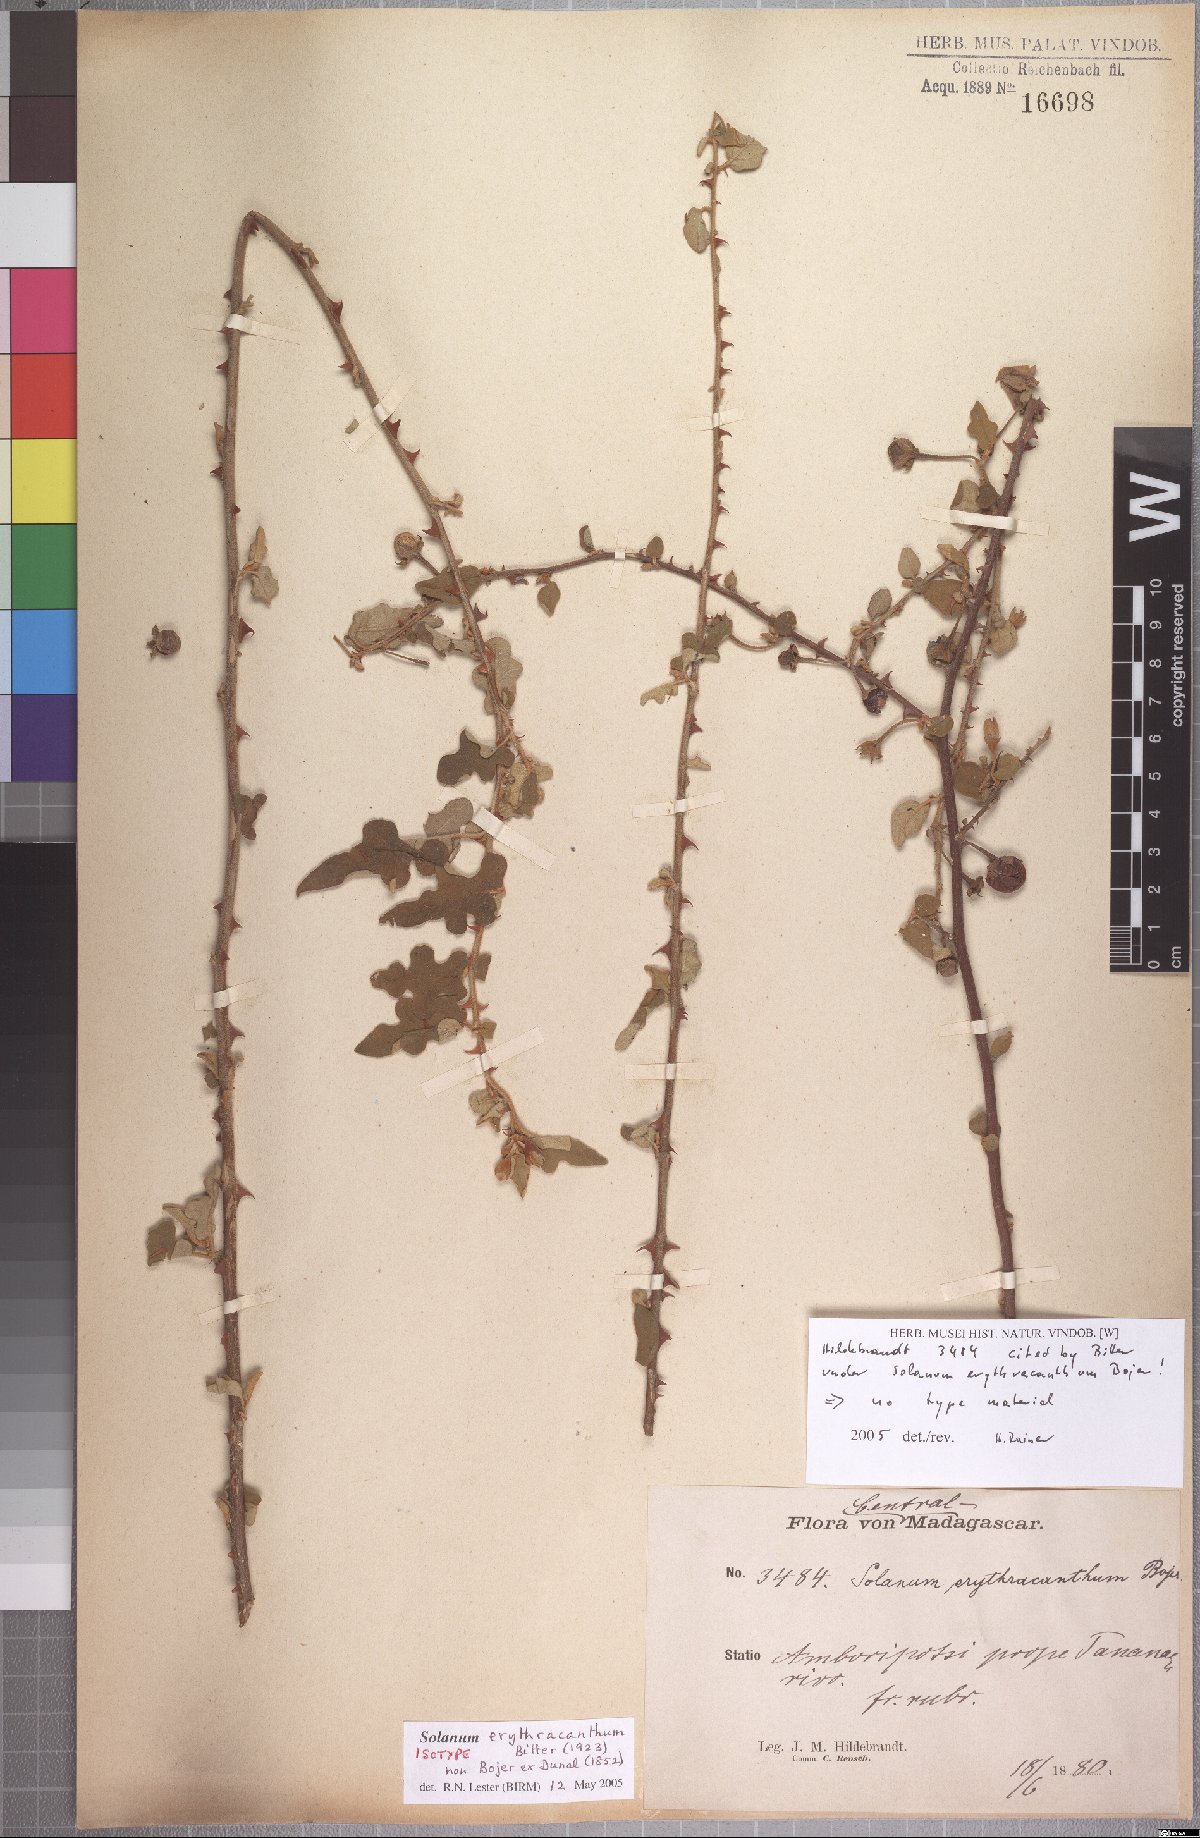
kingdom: Plantae
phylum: Tracheophyta
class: Magnoliopsida
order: Solanales
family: Solanaceae
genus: Solanum
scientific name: Solanum erythracanthum
